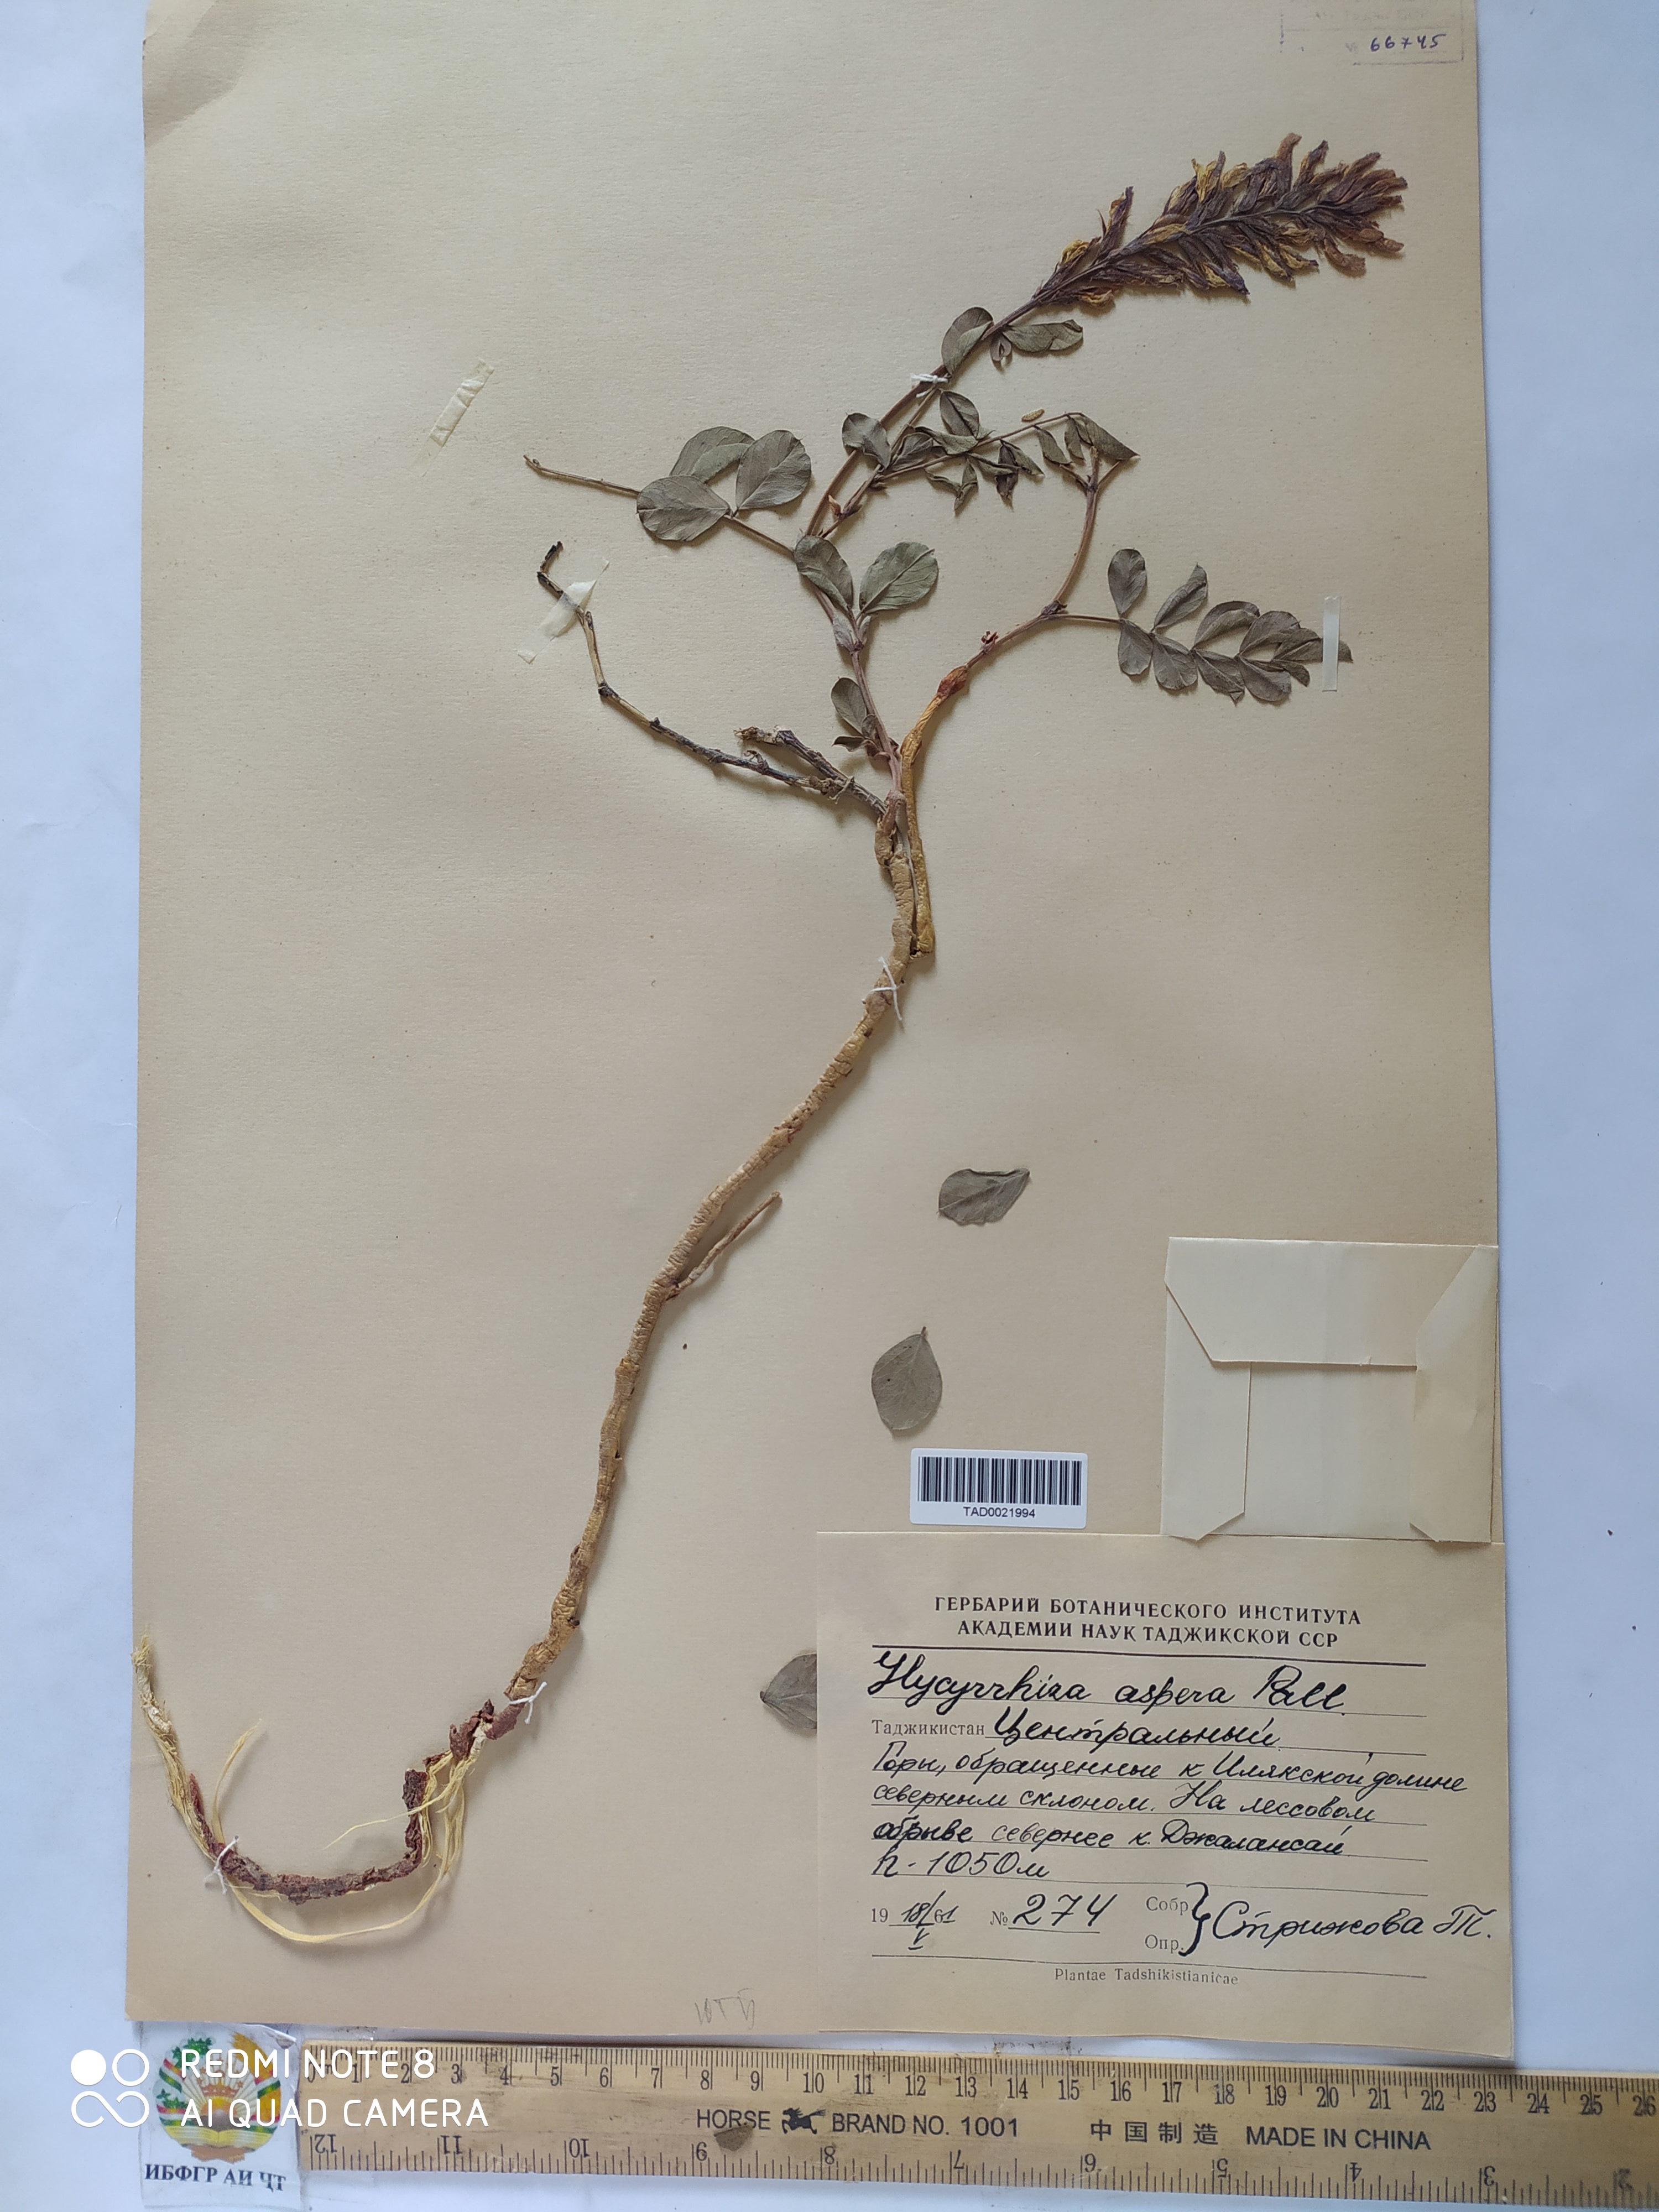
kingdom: Plantae
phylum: Tracheophyta
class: Magnoliopsida
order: Fabales
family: Fabaceae
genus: Glycyrrhiza
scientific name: Glycyrrhiza glabra
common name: Liquorice
